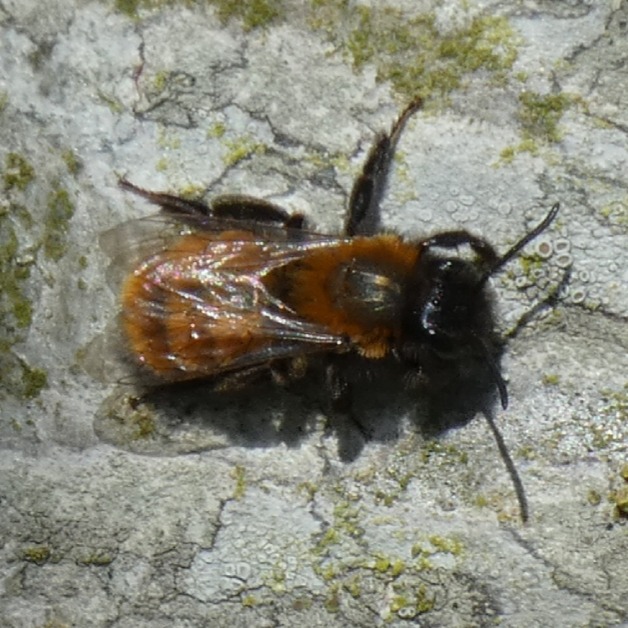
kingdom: Animalia
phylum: Arthropoda
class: Insecta
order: Hymenoptera
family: Andrenidae
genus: Andrena
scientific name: Andrena fulva
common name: Rødpelset jordbi
